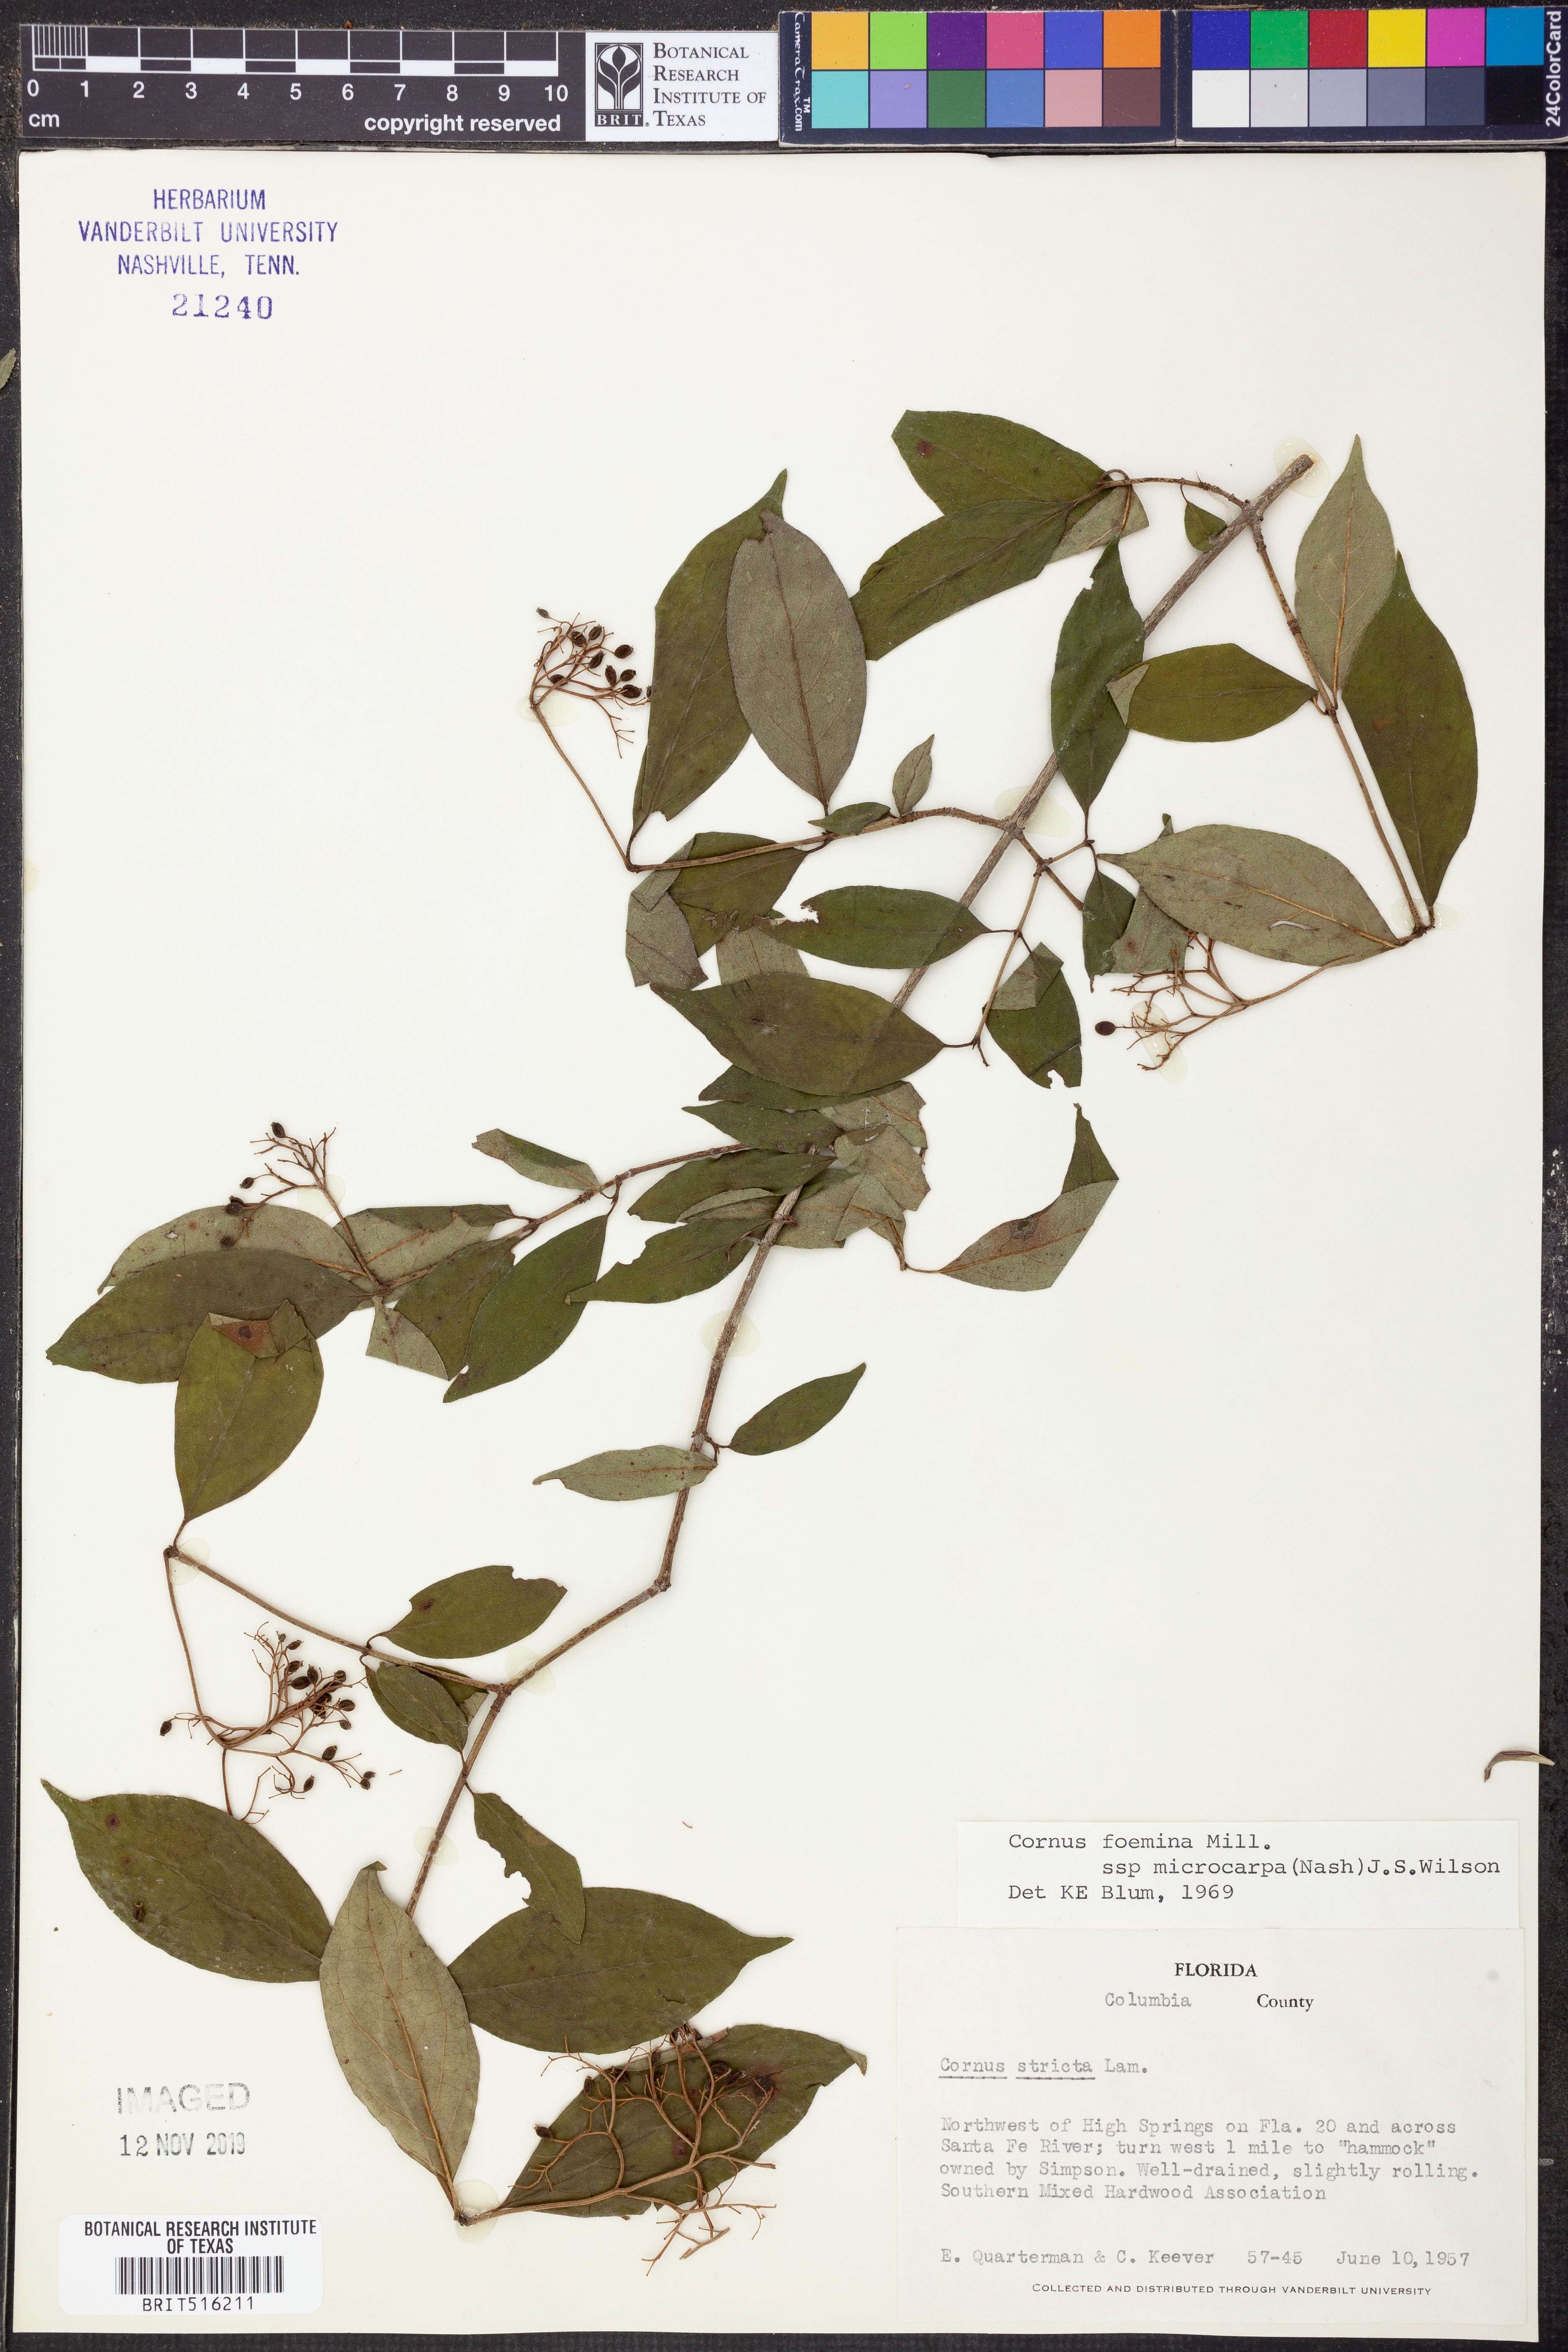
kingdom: Plantae
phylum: Tracheophyta
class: Magnoliopsida
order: Cornales
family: Cornaceae
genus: Cornus
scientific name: Cornus asperifolia
